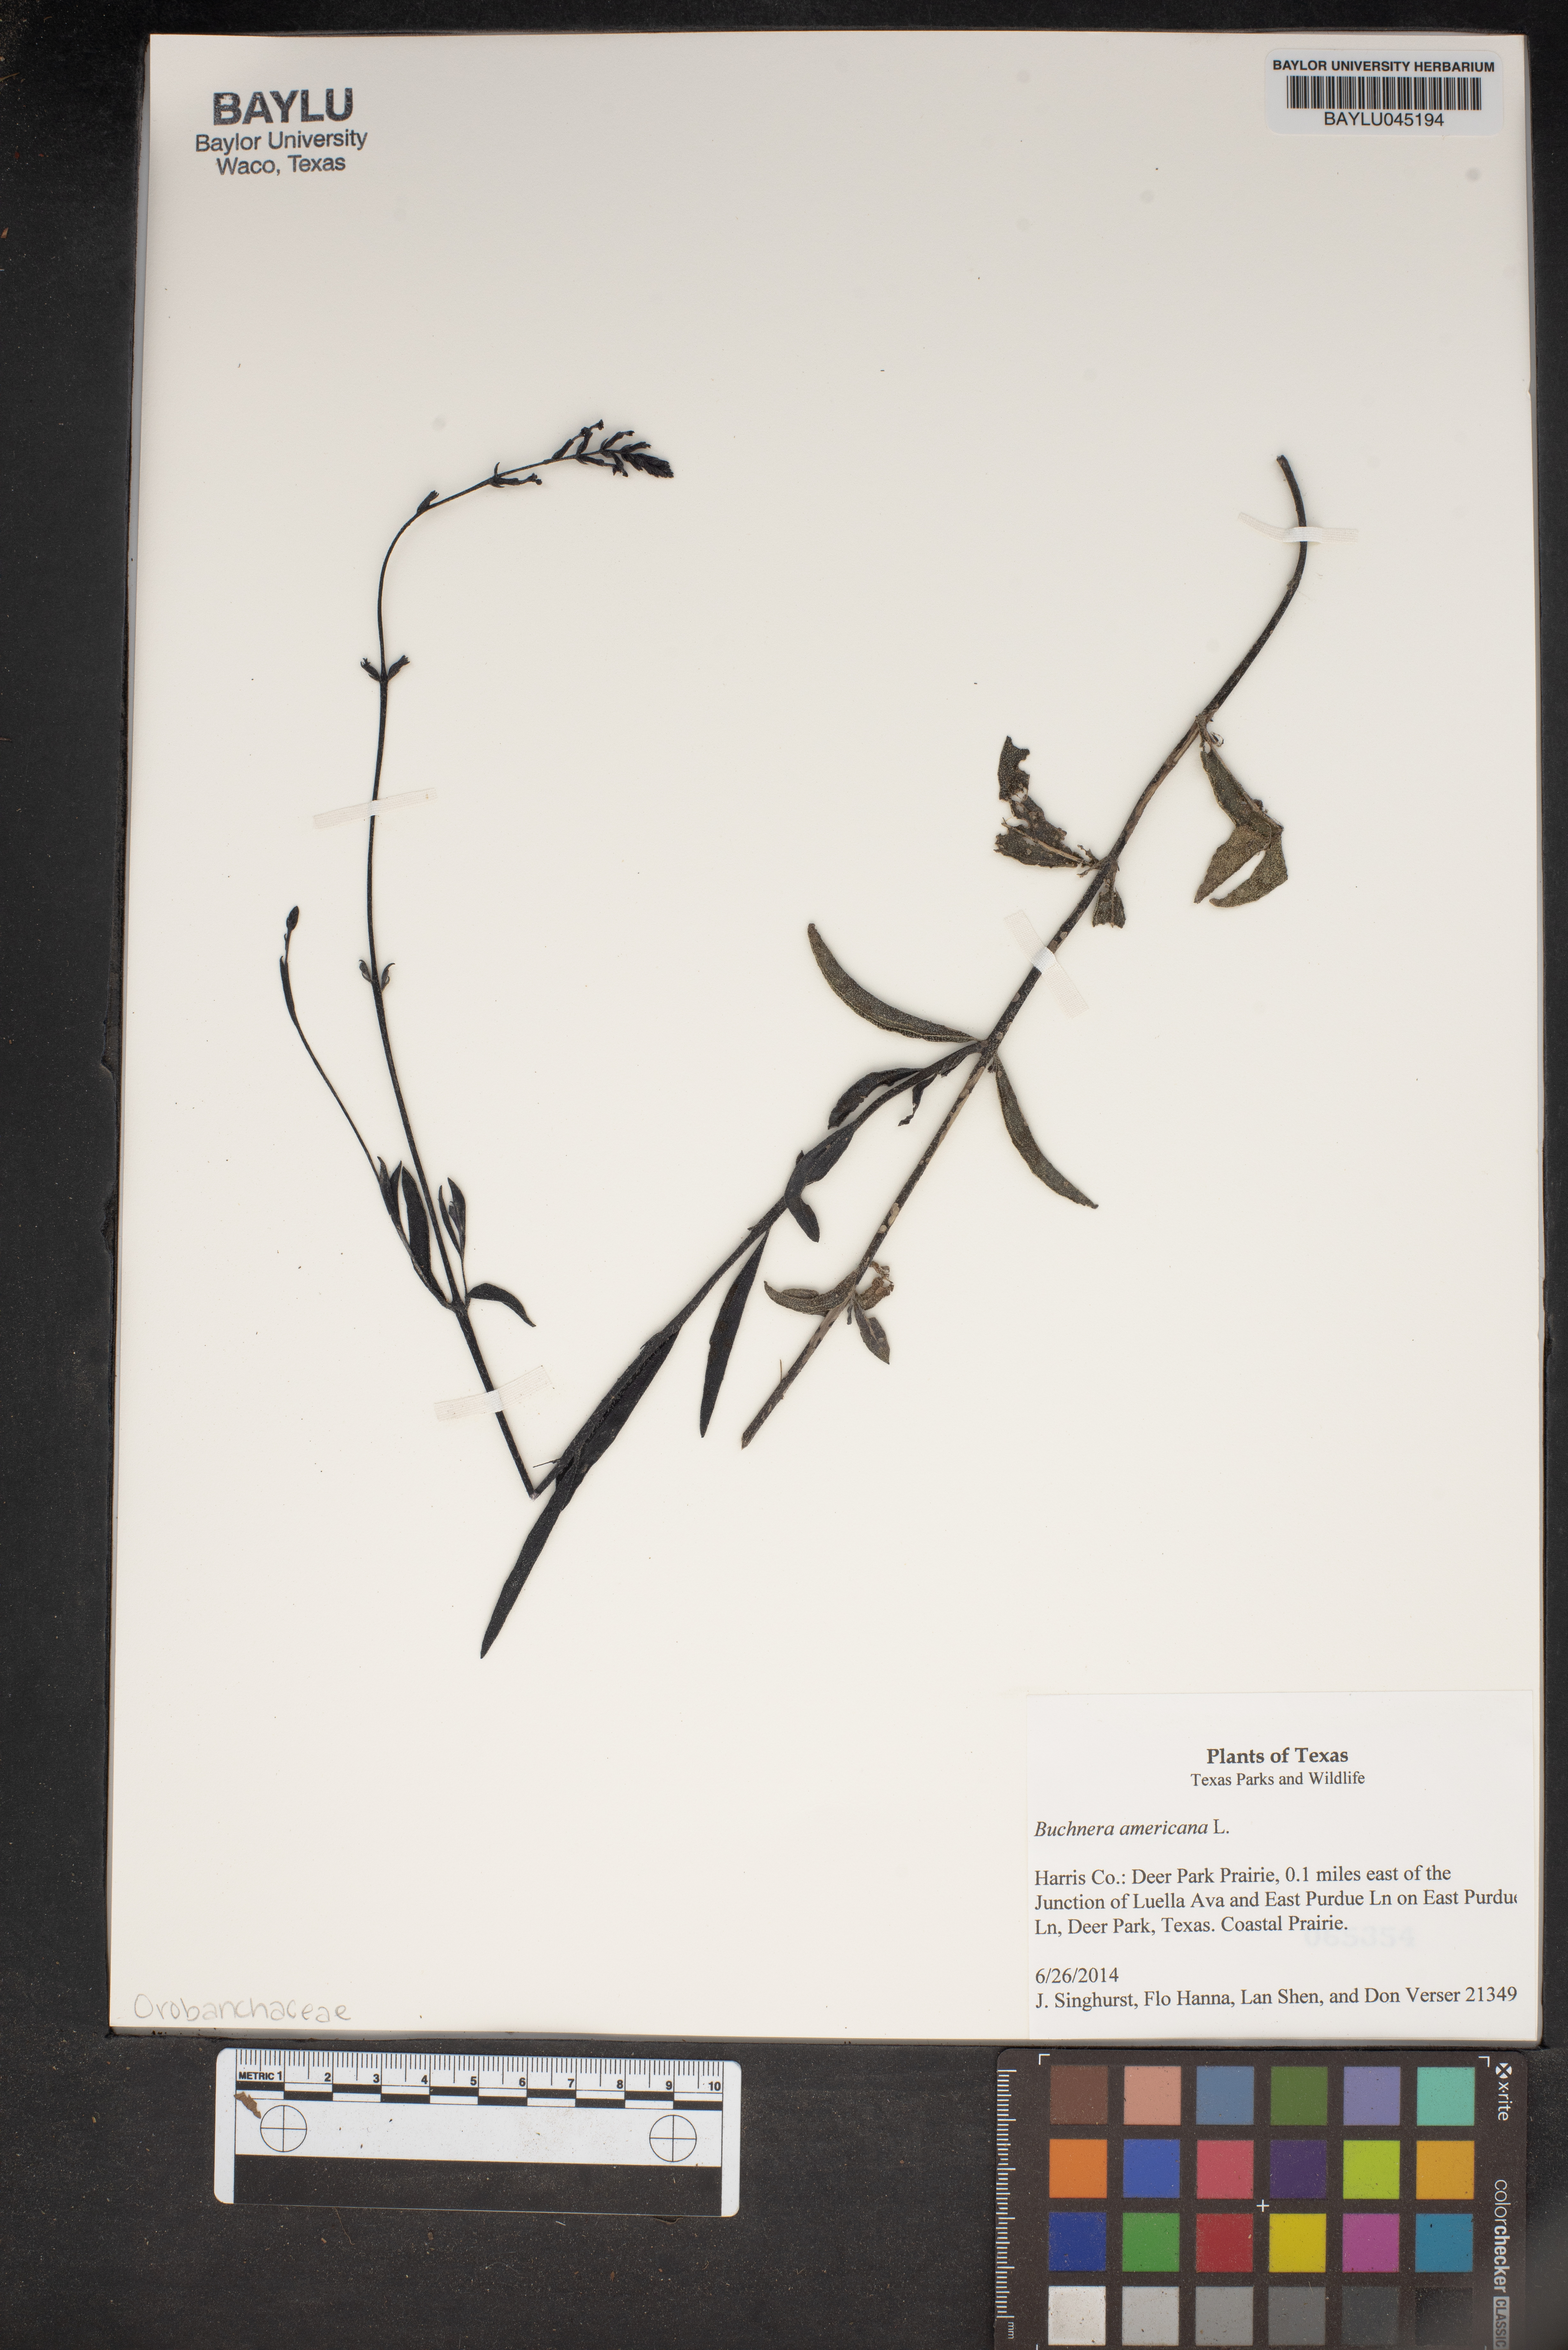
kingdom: Plantae
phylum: Tracheophyta
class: Magnoliopsida
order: Lamiales
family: Orobanchaceae
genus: Buchnera
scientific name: Buchnera americana
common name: American bluehearts
